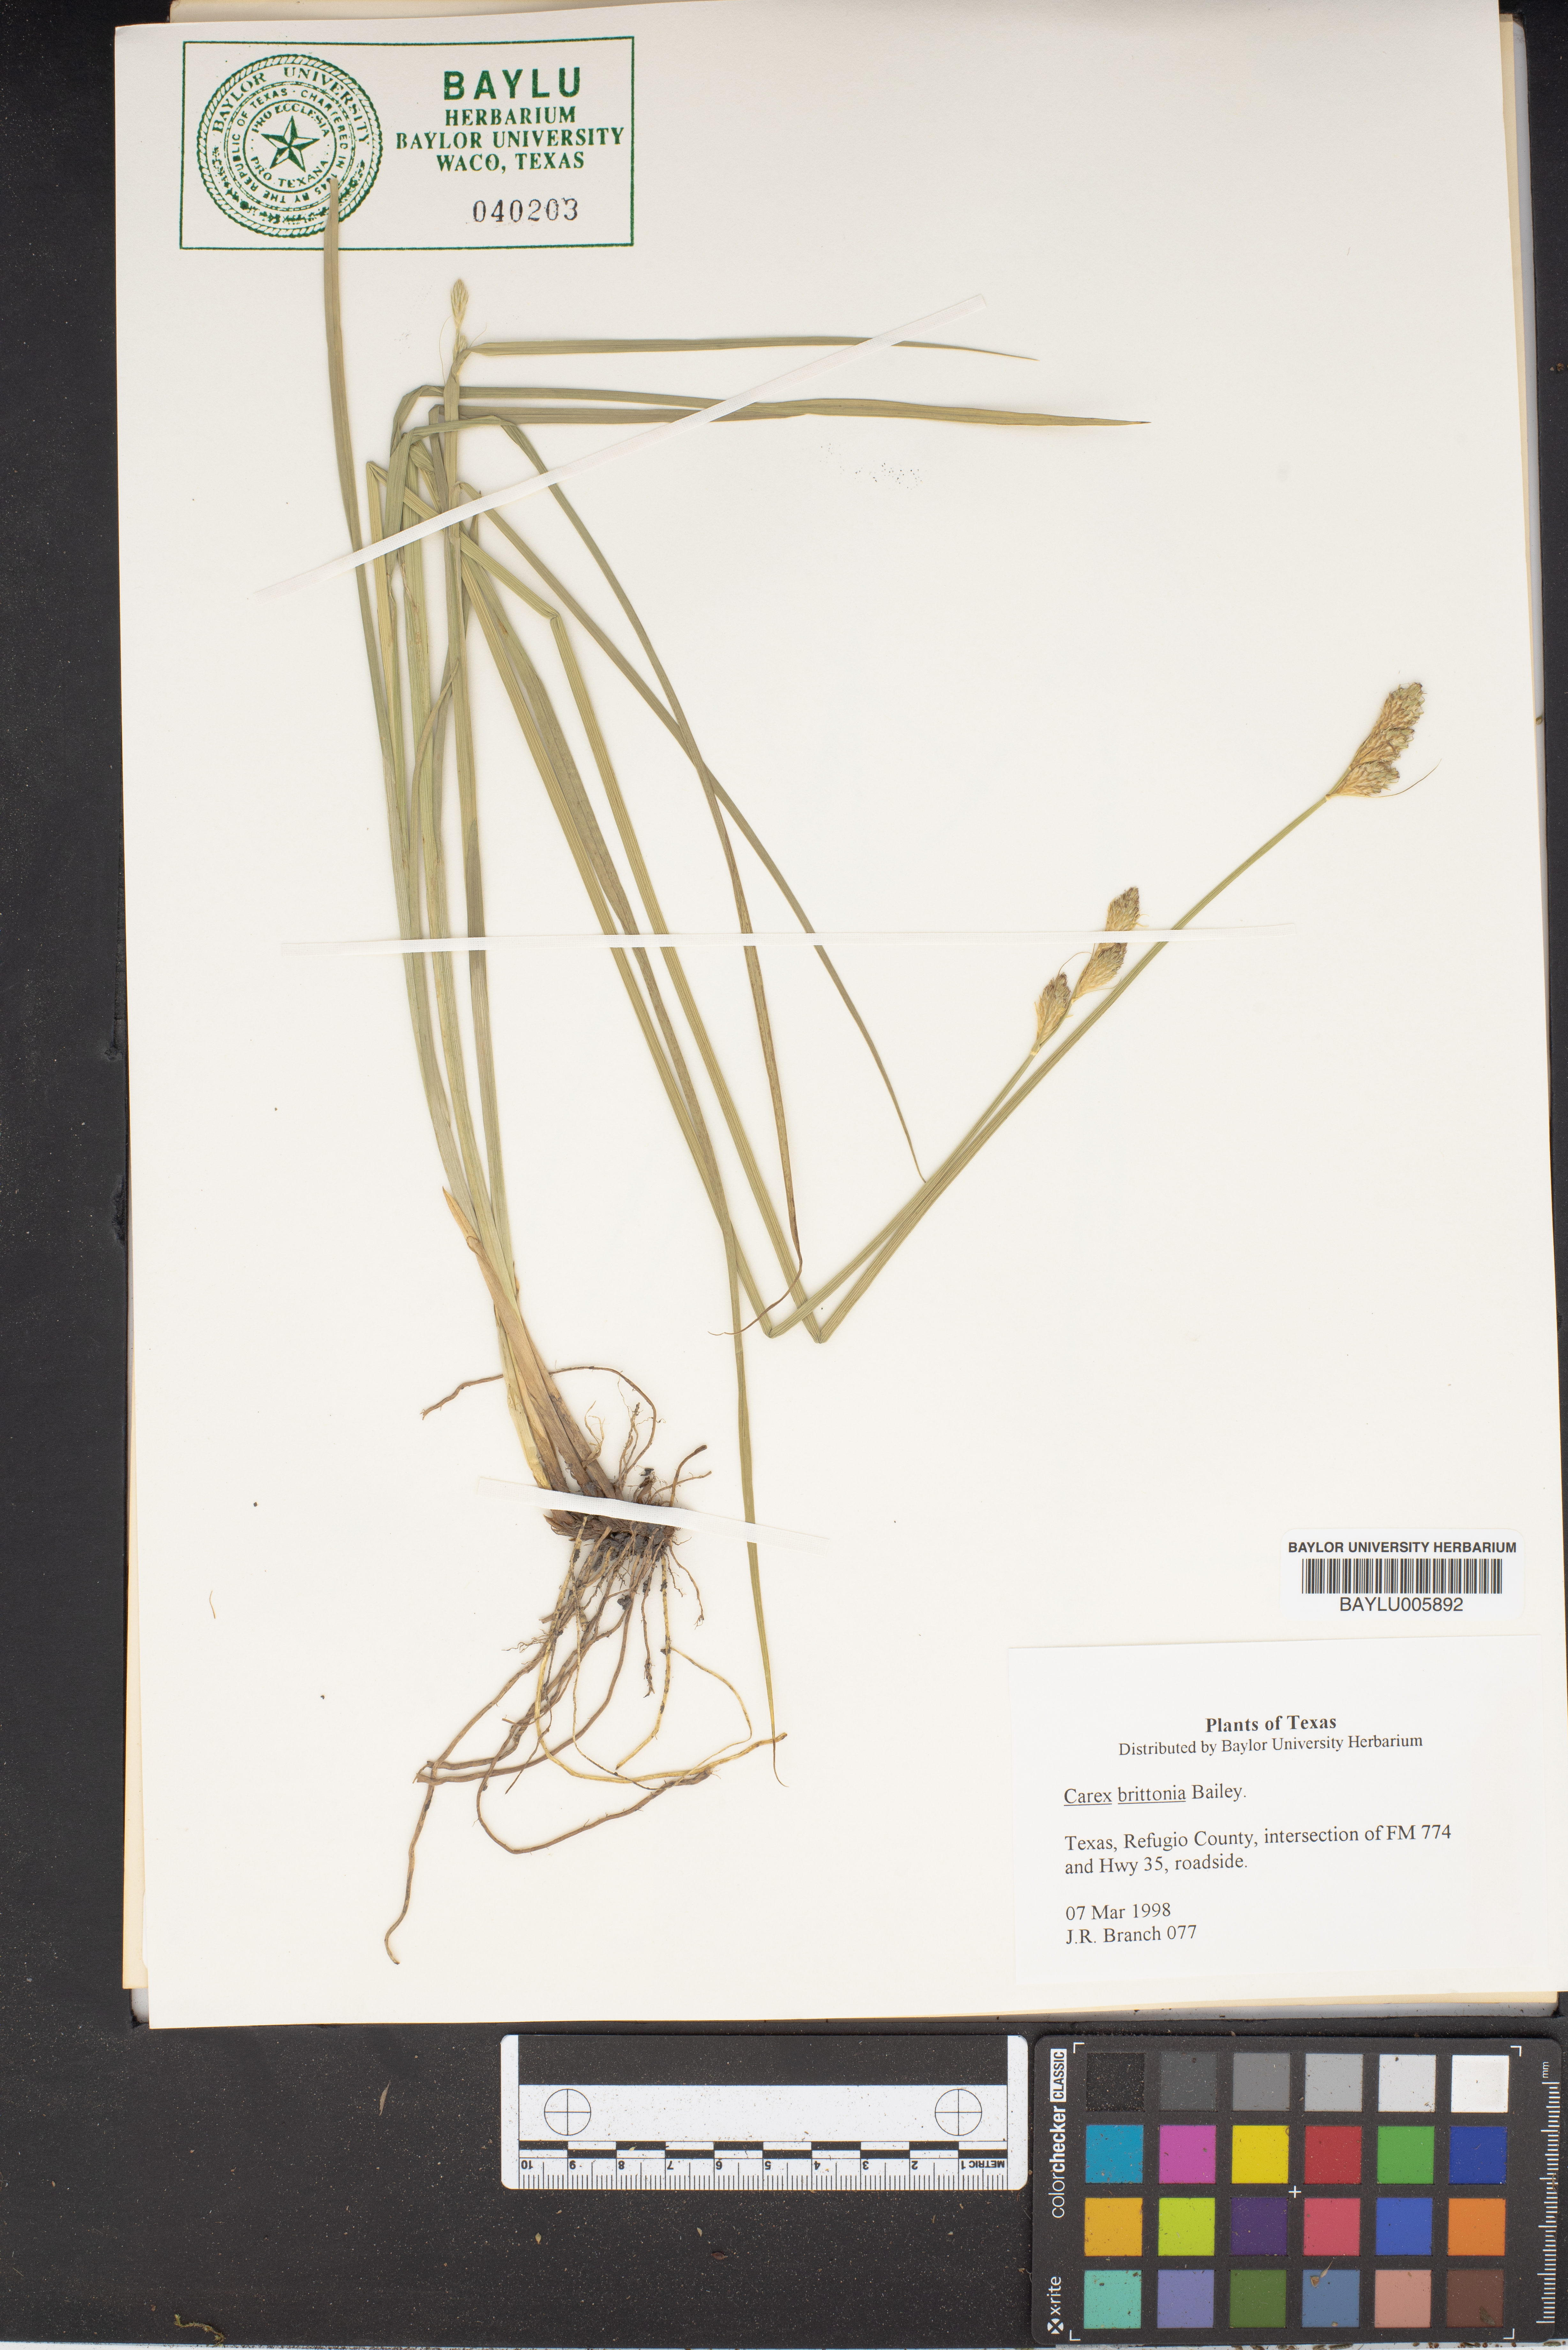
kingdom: Plantae
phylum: Tracheophyta
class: Liliopsida
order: Poales
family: Cyperaceae
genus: Carex
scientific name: Carex tetrastachya
